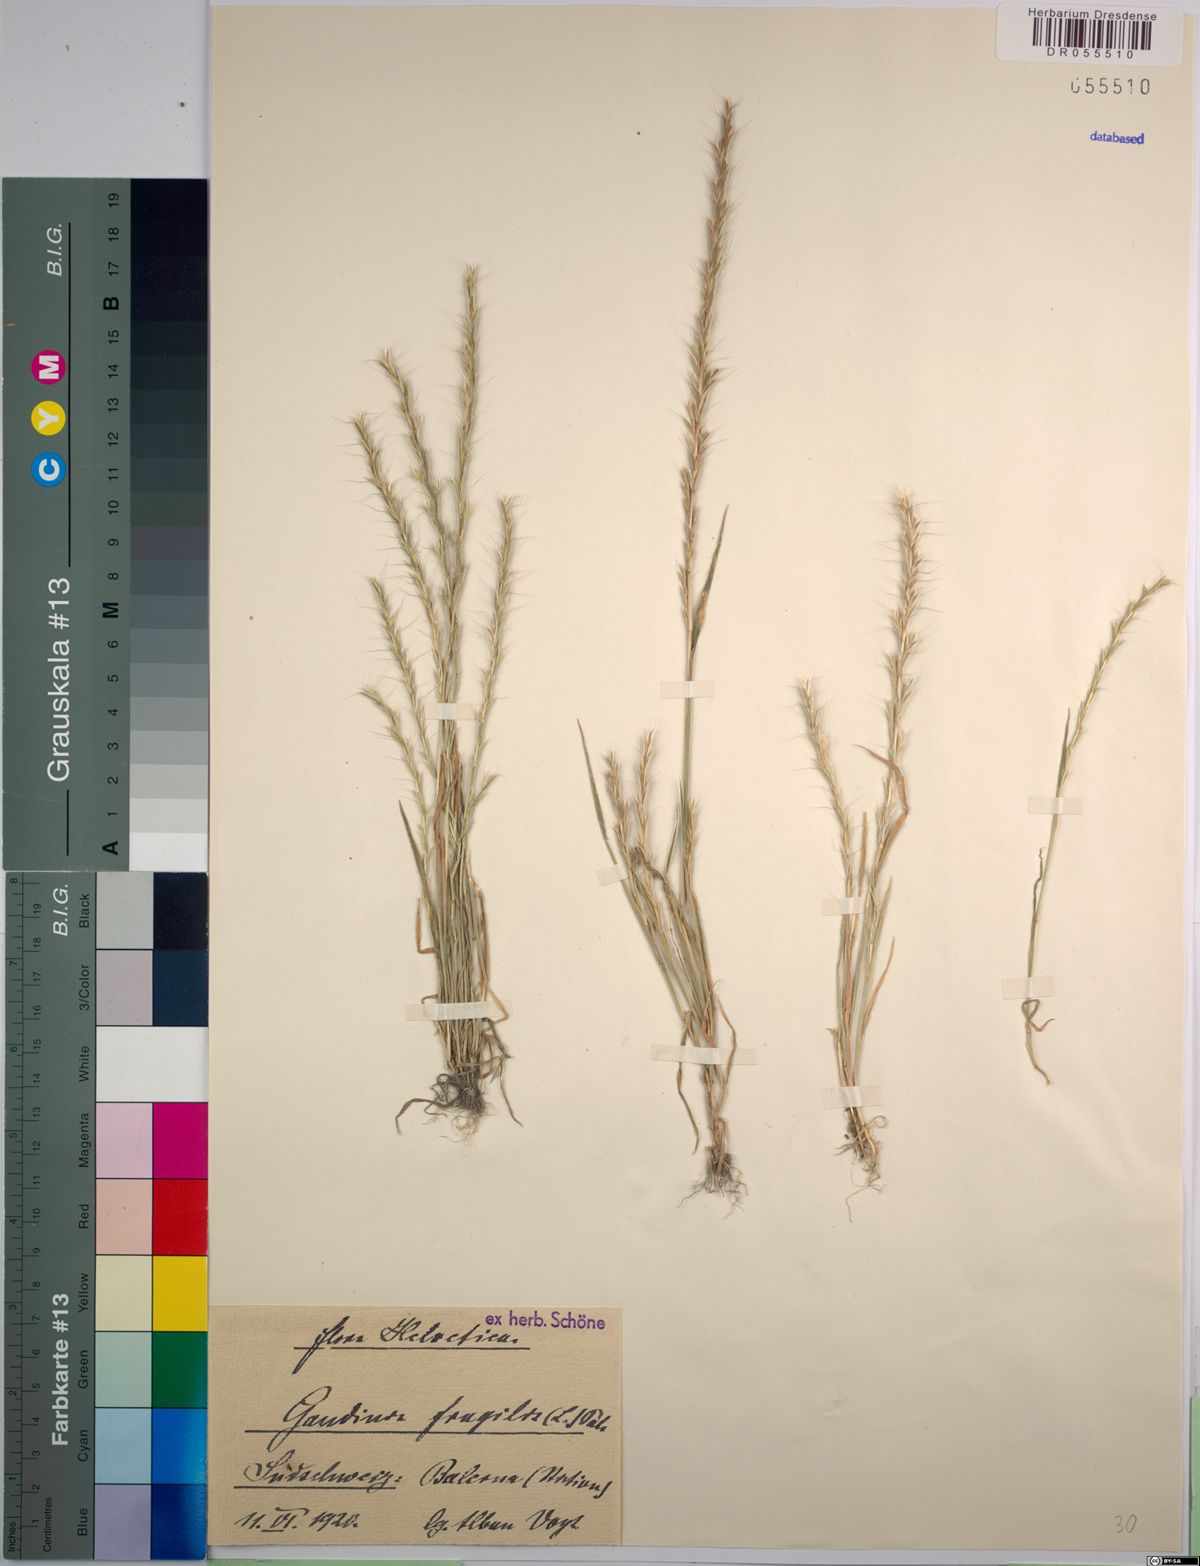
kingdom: Plantae
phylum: Tracheophyta
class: Liliopsida
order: Poales
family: Poaceae
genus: Gaudinia
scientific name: Gaudinia fragilis
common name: French oat-grass
